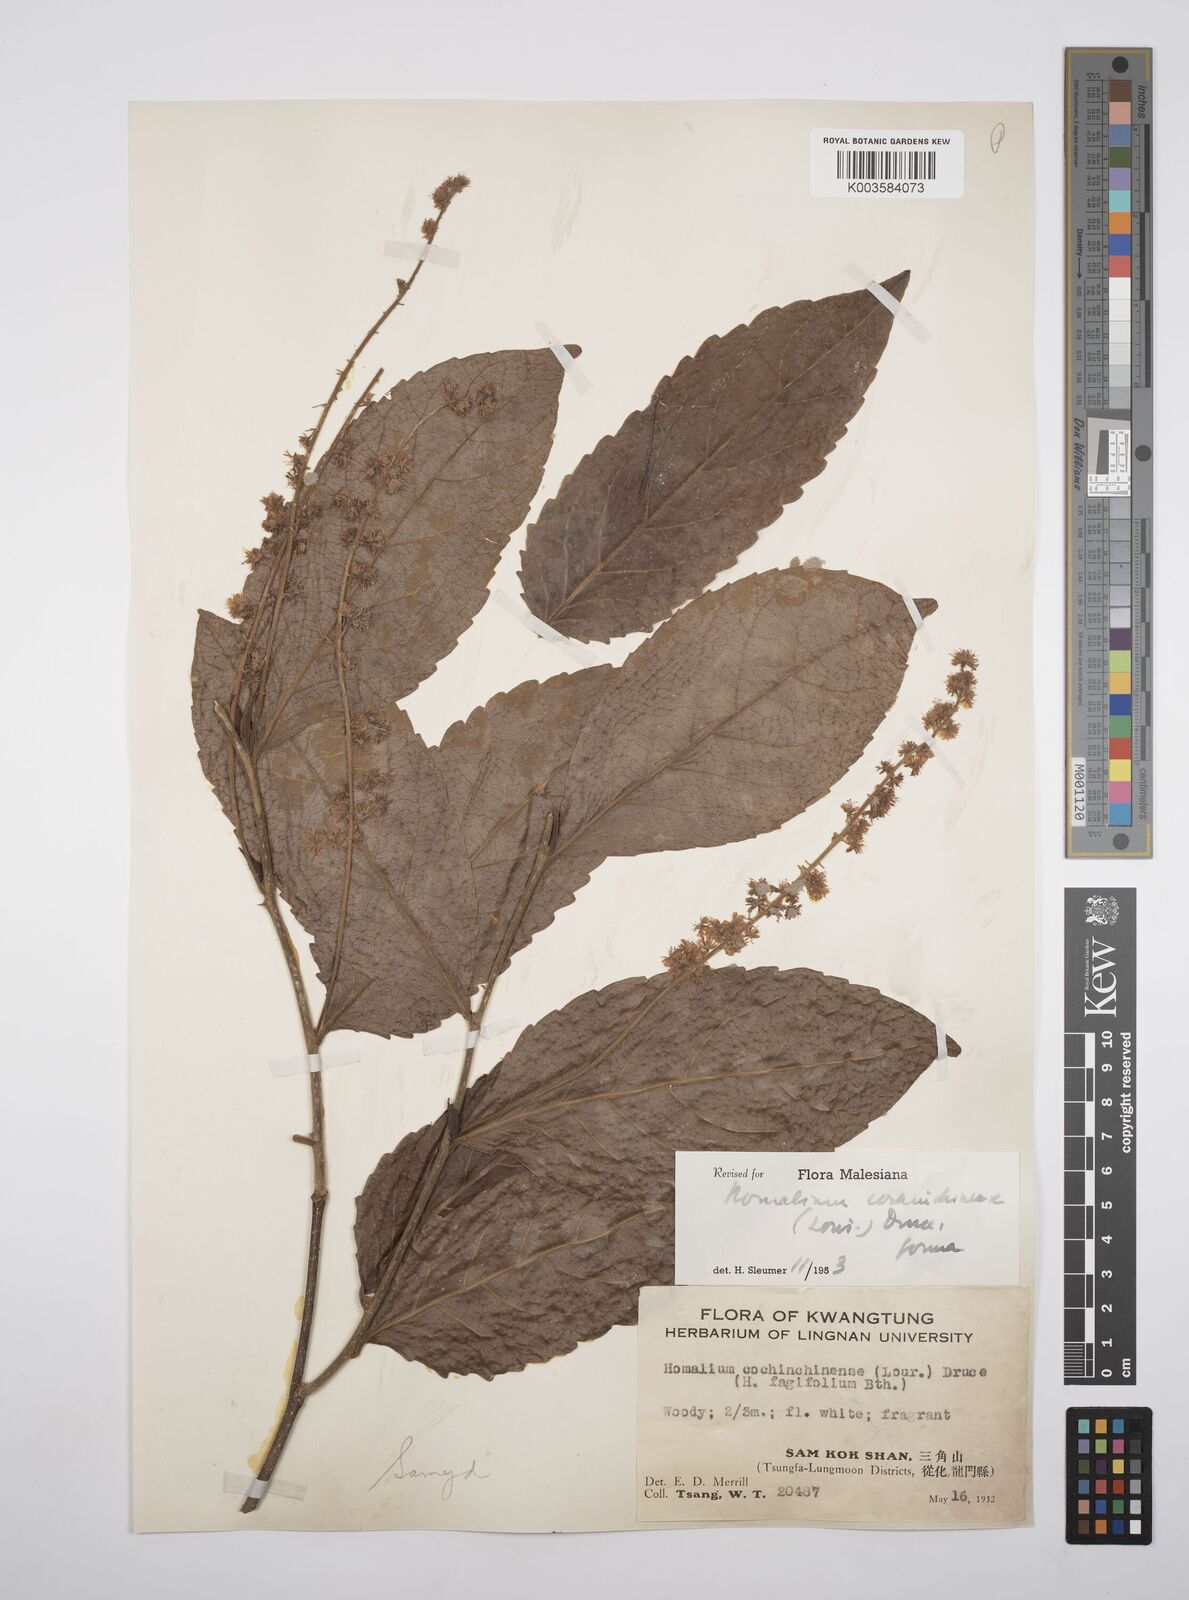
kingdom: Plantae
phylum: Tracheophyta
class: Magnoliopsida
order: Malpighiales
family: Salicaceae
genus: Homalium
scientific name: Homalium cochinchinensis
